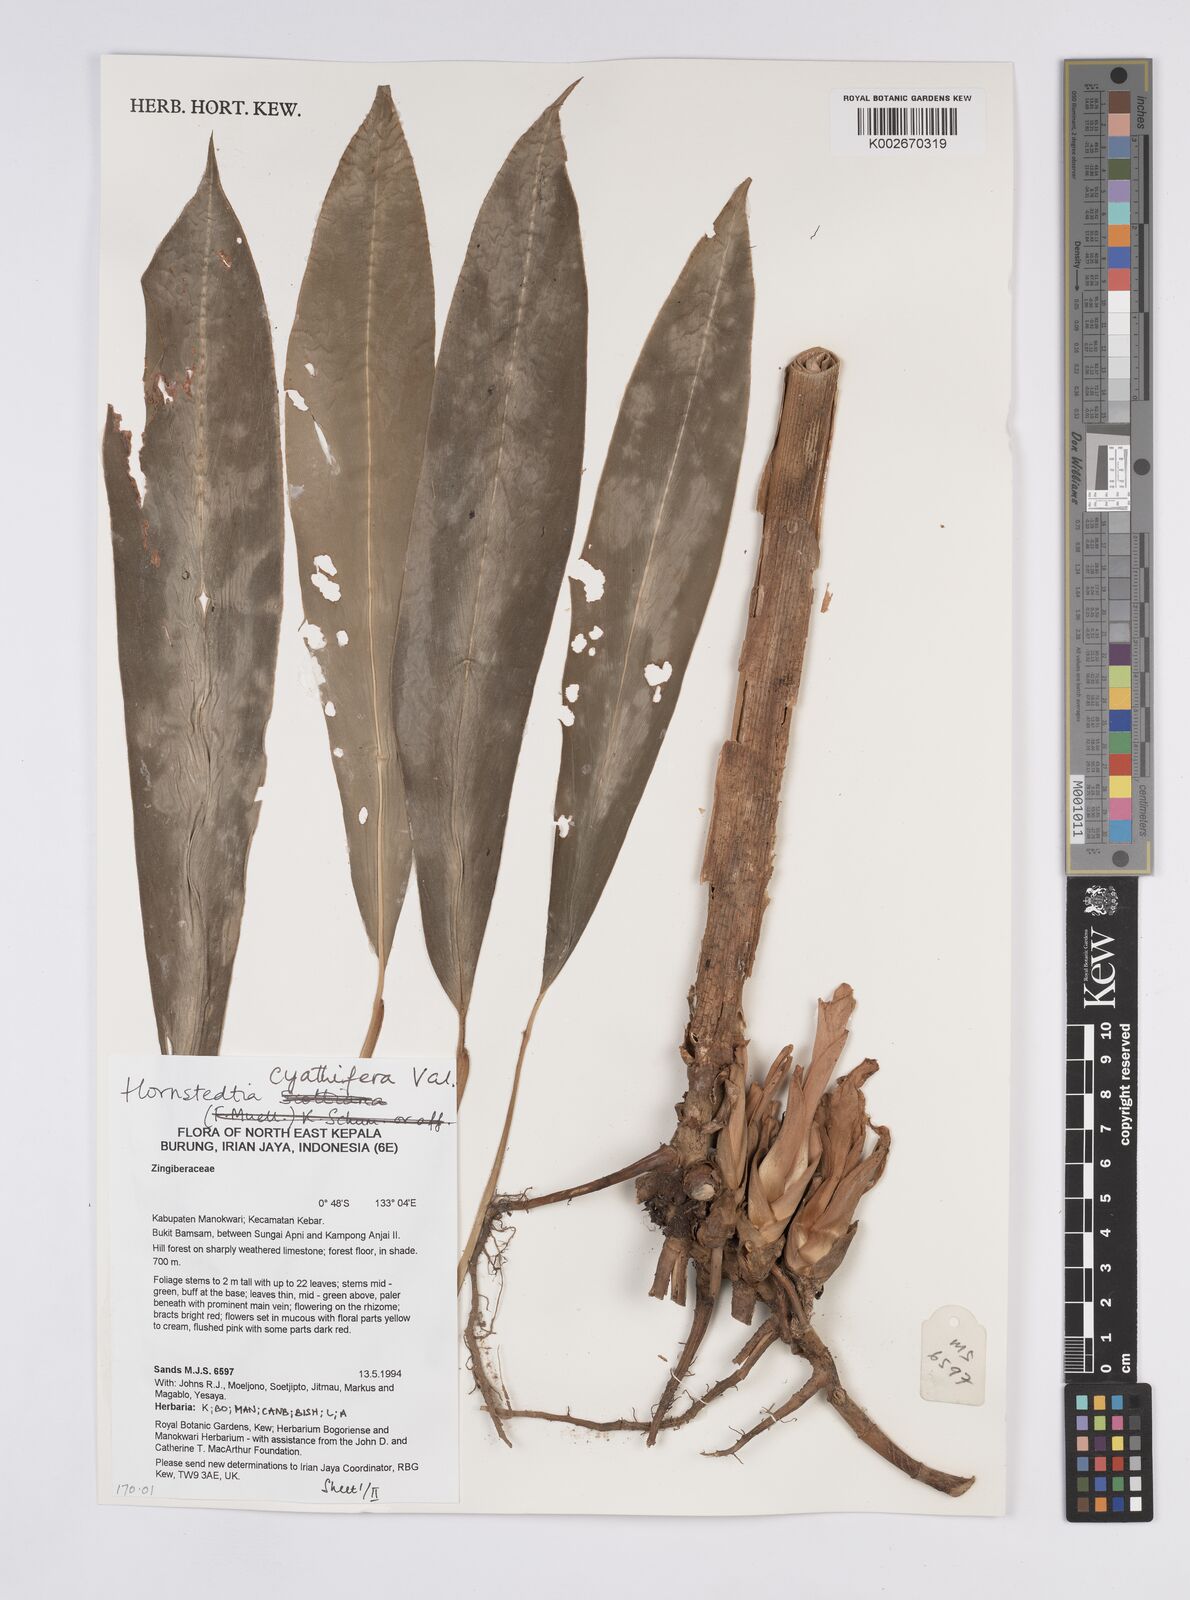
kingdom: Plantae
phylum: Tracheophyta
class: Liliopsida
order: Zingiberales
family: Zingiberaceae
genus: Hornstedtia
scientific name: Hornstedtia cyathifera
